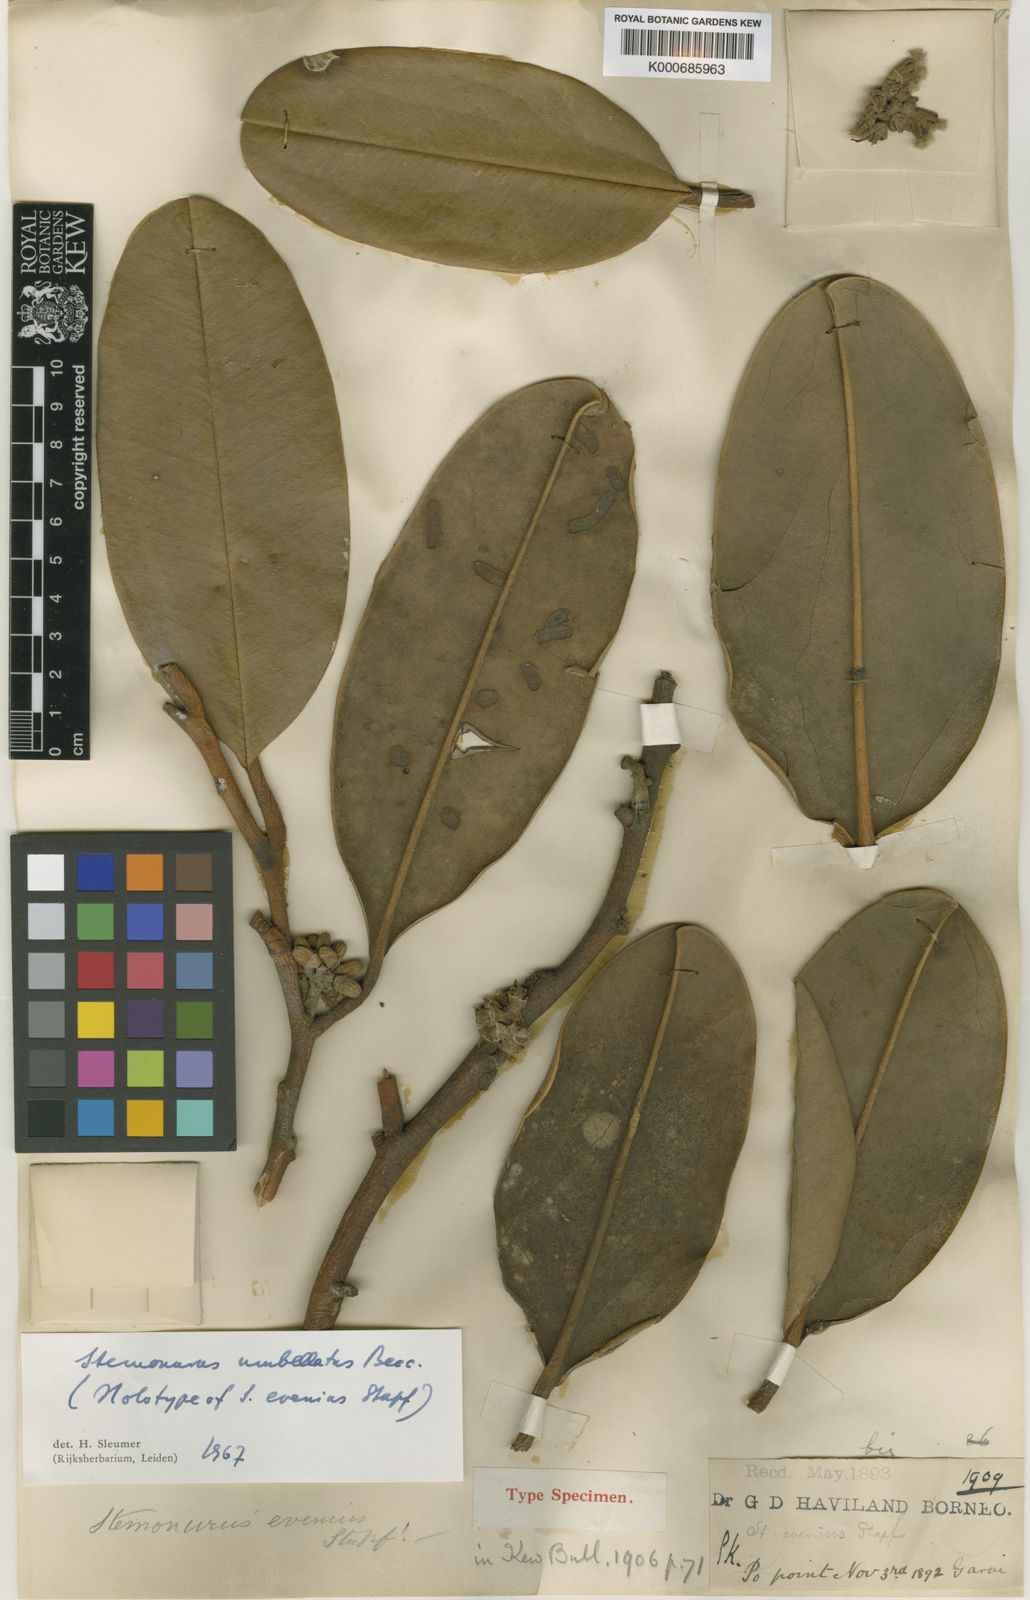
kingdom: Plantae
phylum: Tracheophyta
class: Magnoliopsida
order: Cardiopteridales
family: Stemonuraceae
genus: Stemonurus
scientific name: Stemonurus umbellatus
